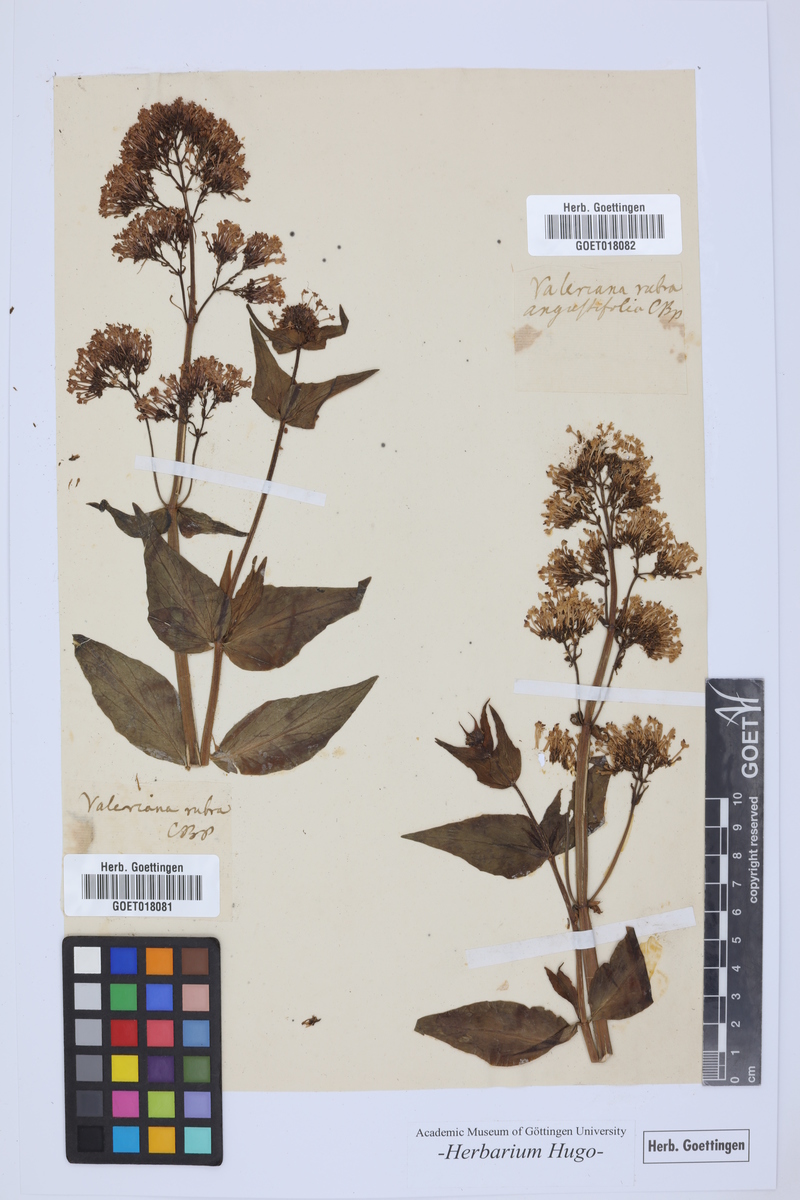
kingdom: Plantae
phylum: Tracheophyta
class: Magnoliopsida
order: Dipsacales
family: Caprifoliaceae
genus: Centranthus
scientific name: Centranthus ruber
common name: Red valerian
